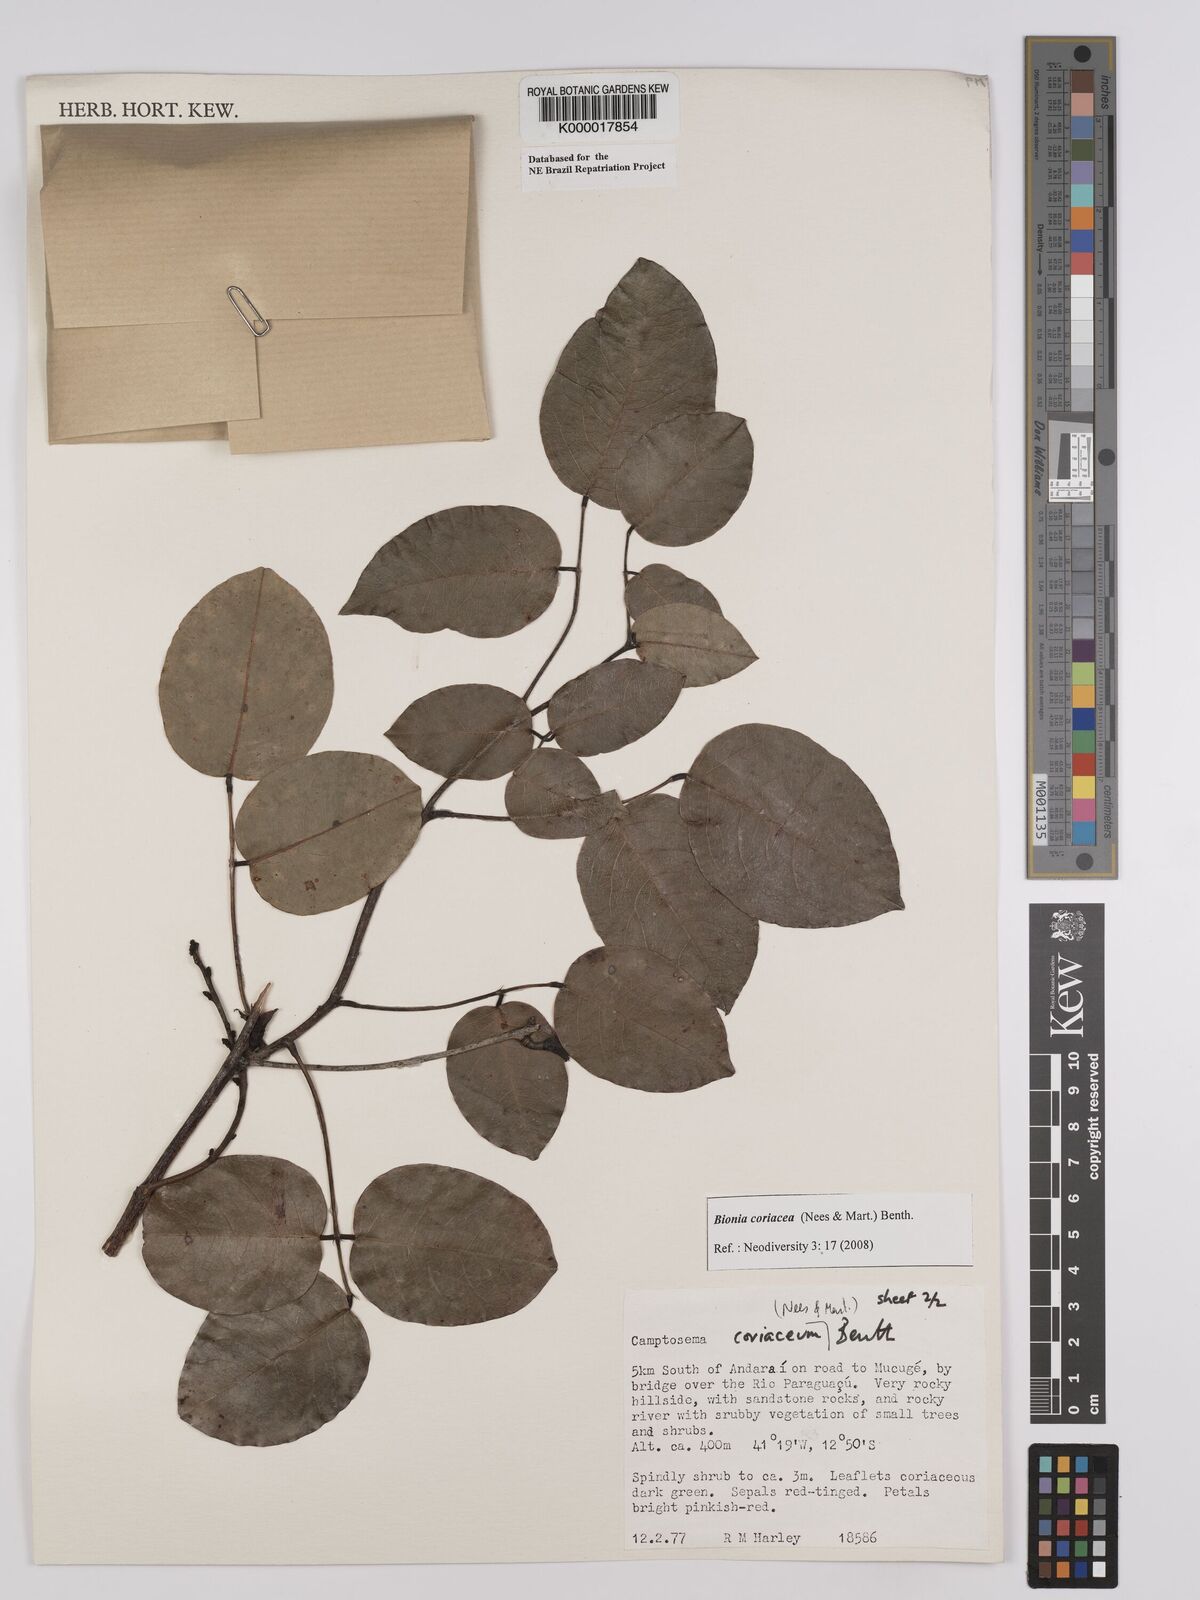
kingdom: Plantae
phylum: Tracheophyta
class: Magnoliopsida
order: Fabales
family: Fabaceae
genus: Camptosema
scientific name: Camptosema coriaceum
